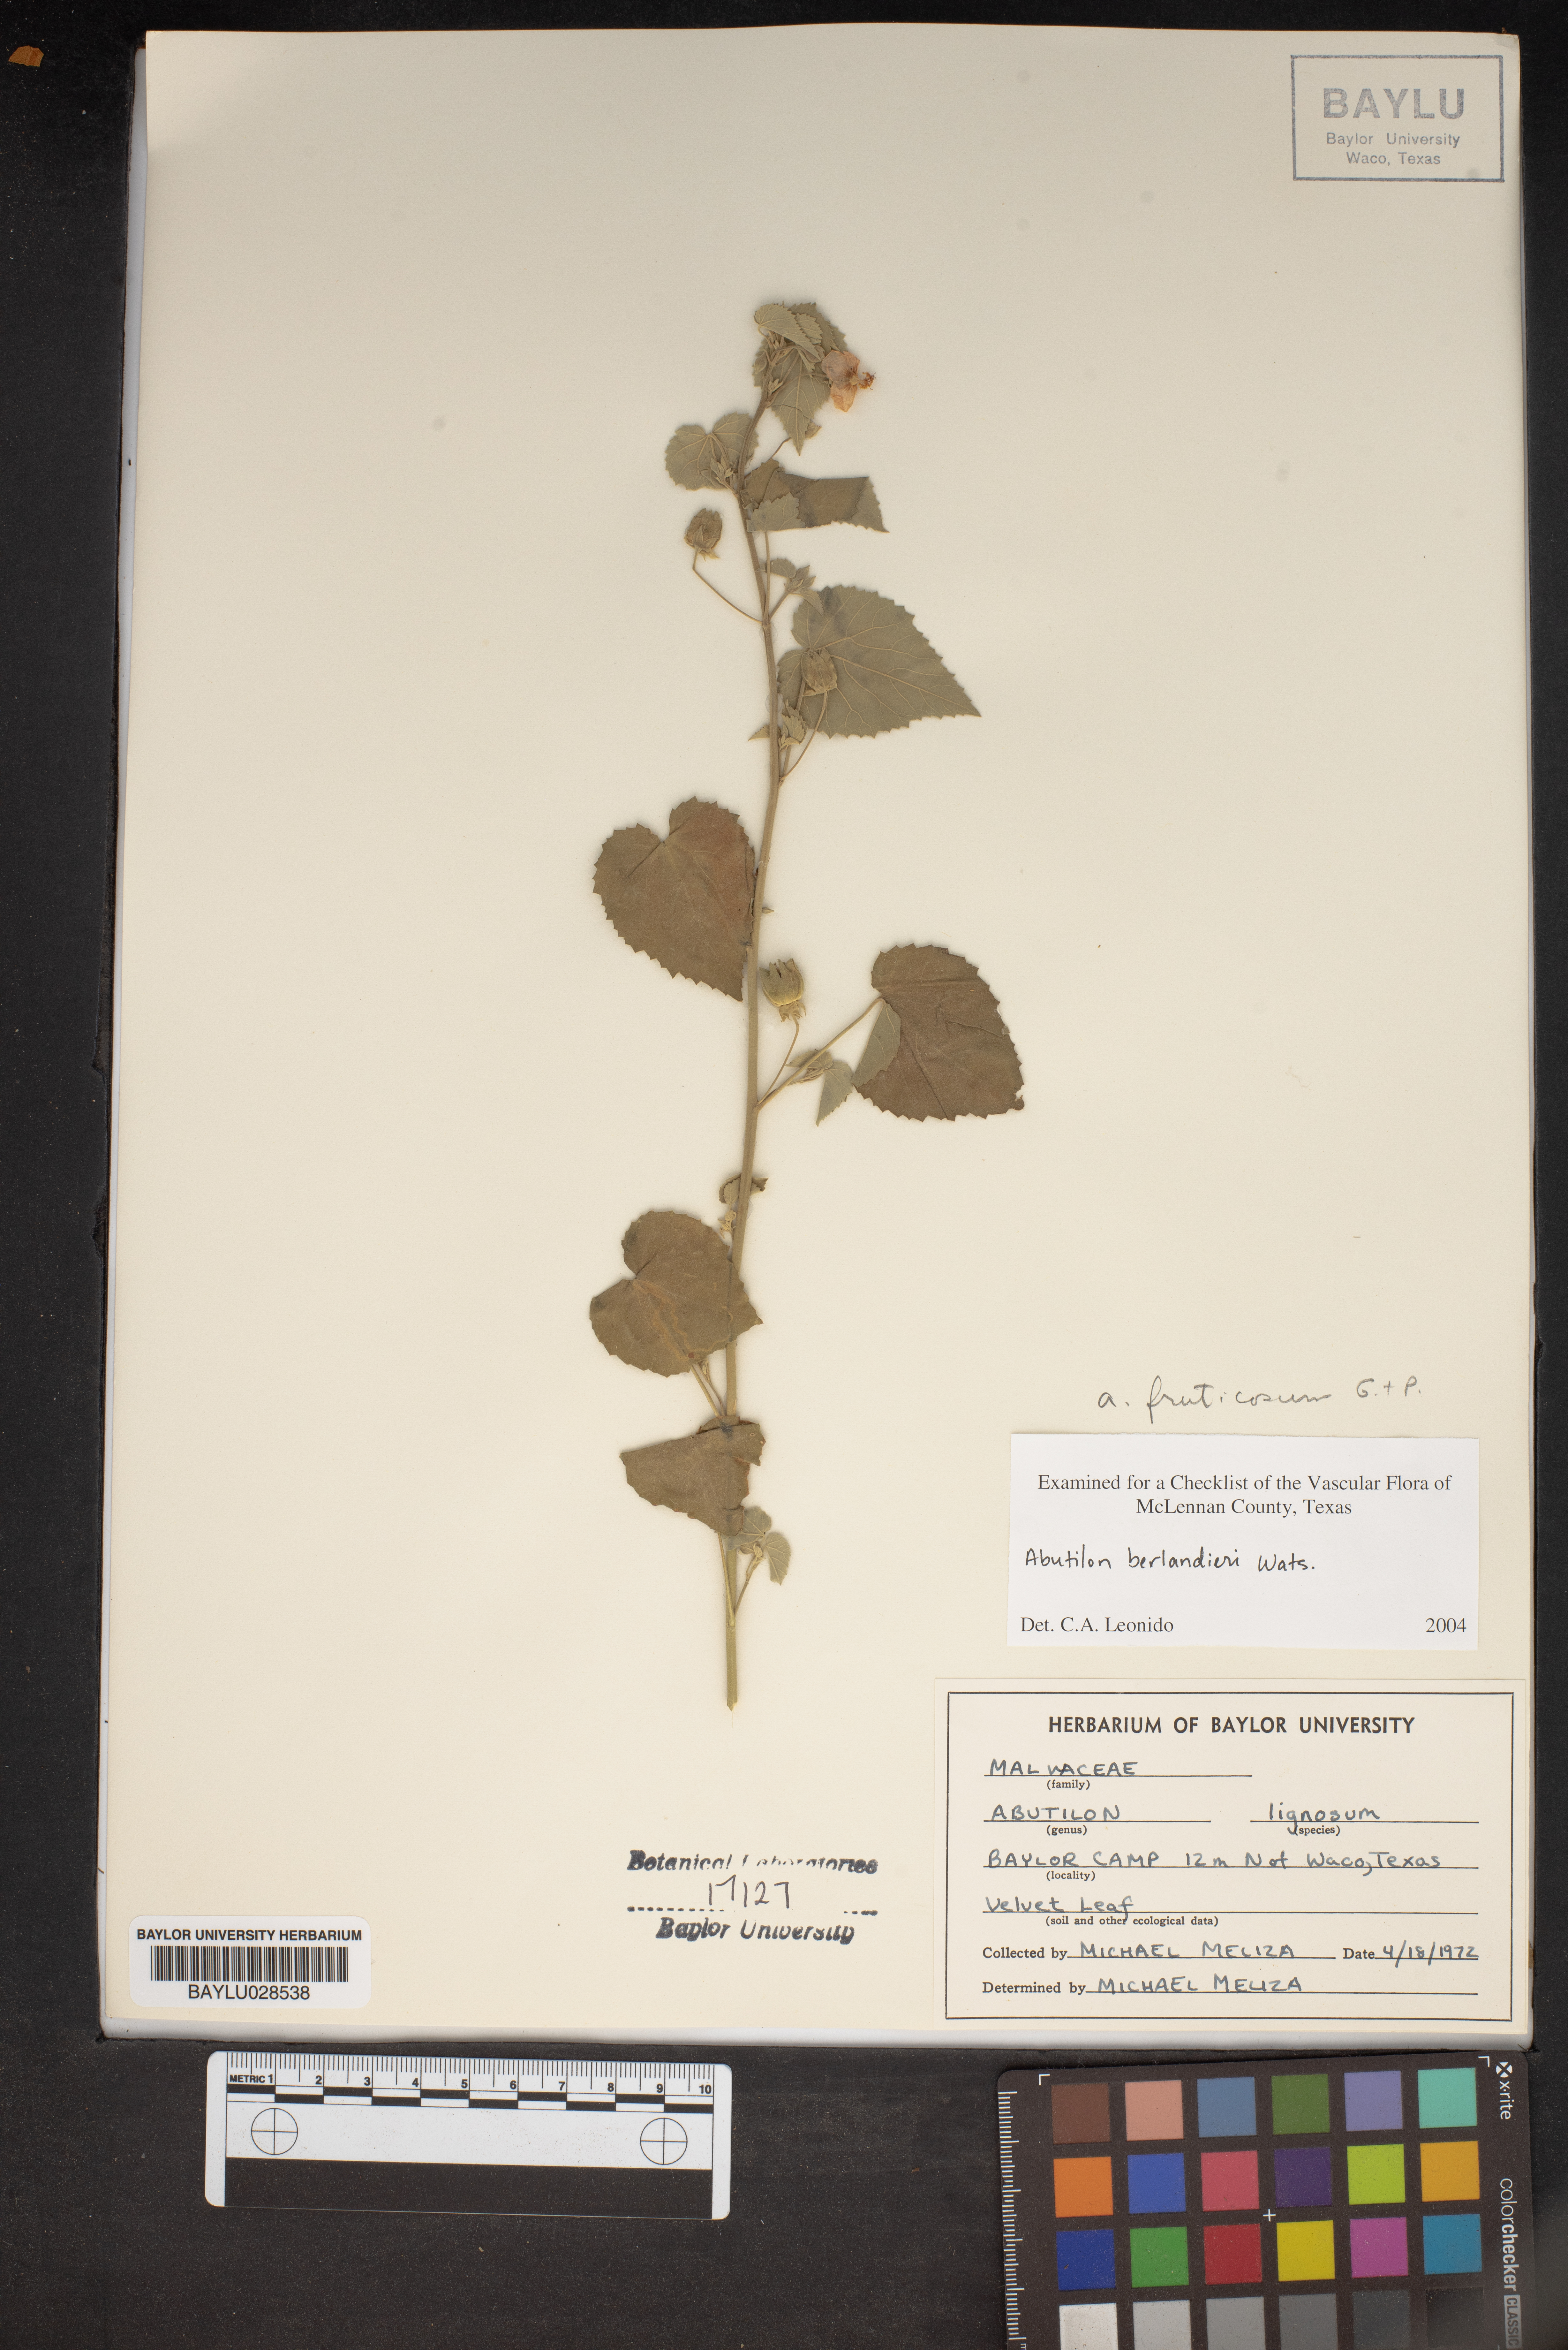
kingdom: Plantae
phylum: Tracheophyta
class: Magnoliopsida
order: Malvales
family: Malvaceae
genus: Abutilon
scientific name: Abutilon berlandieri
